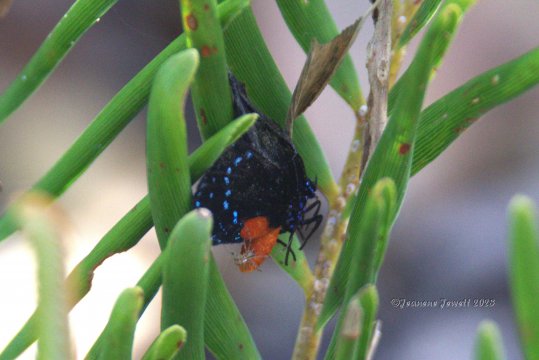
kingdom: Animalia
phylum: Arthropoda
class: Insecta
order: Lepidoptera
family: Lycaenidae
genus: Eumaeus
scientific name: Eumaeus atala
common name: Atala
